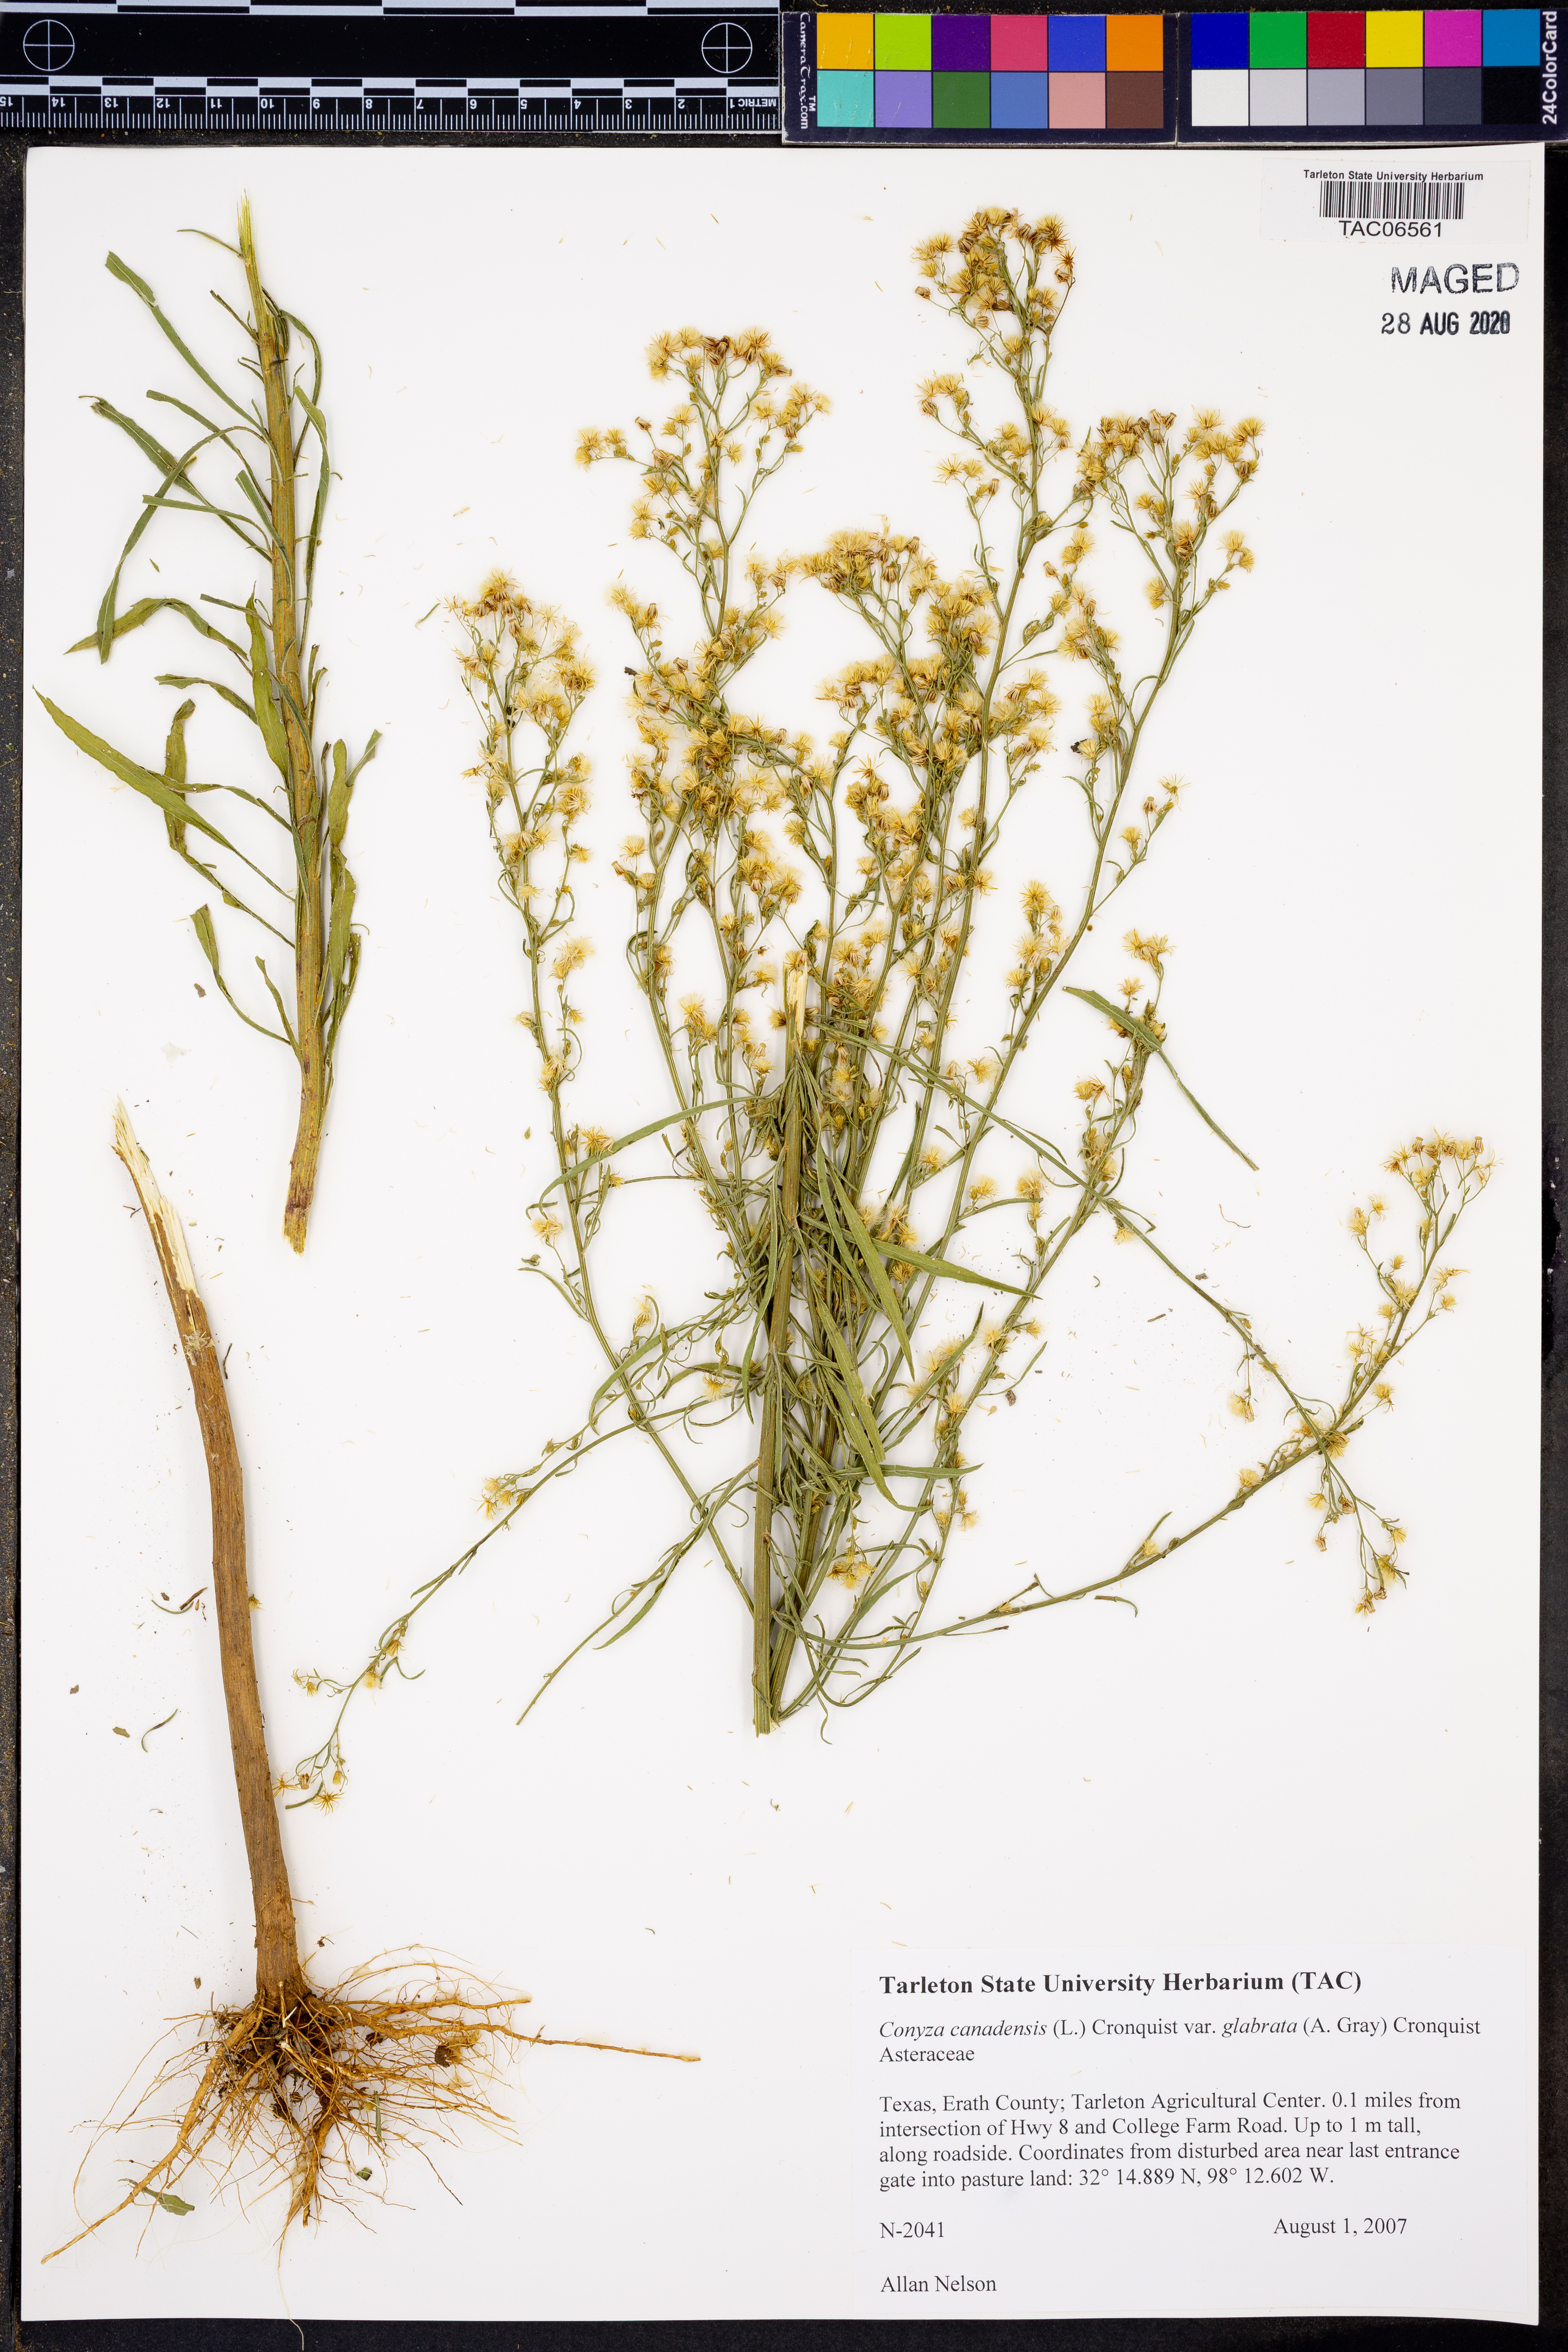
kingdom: Plantae
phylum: Tracheophyta
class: Magnoliopsida
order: Asterales
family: Asteraceae
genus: Erigeron
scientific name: Erigeron canadensis
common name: Canadian fleabane
